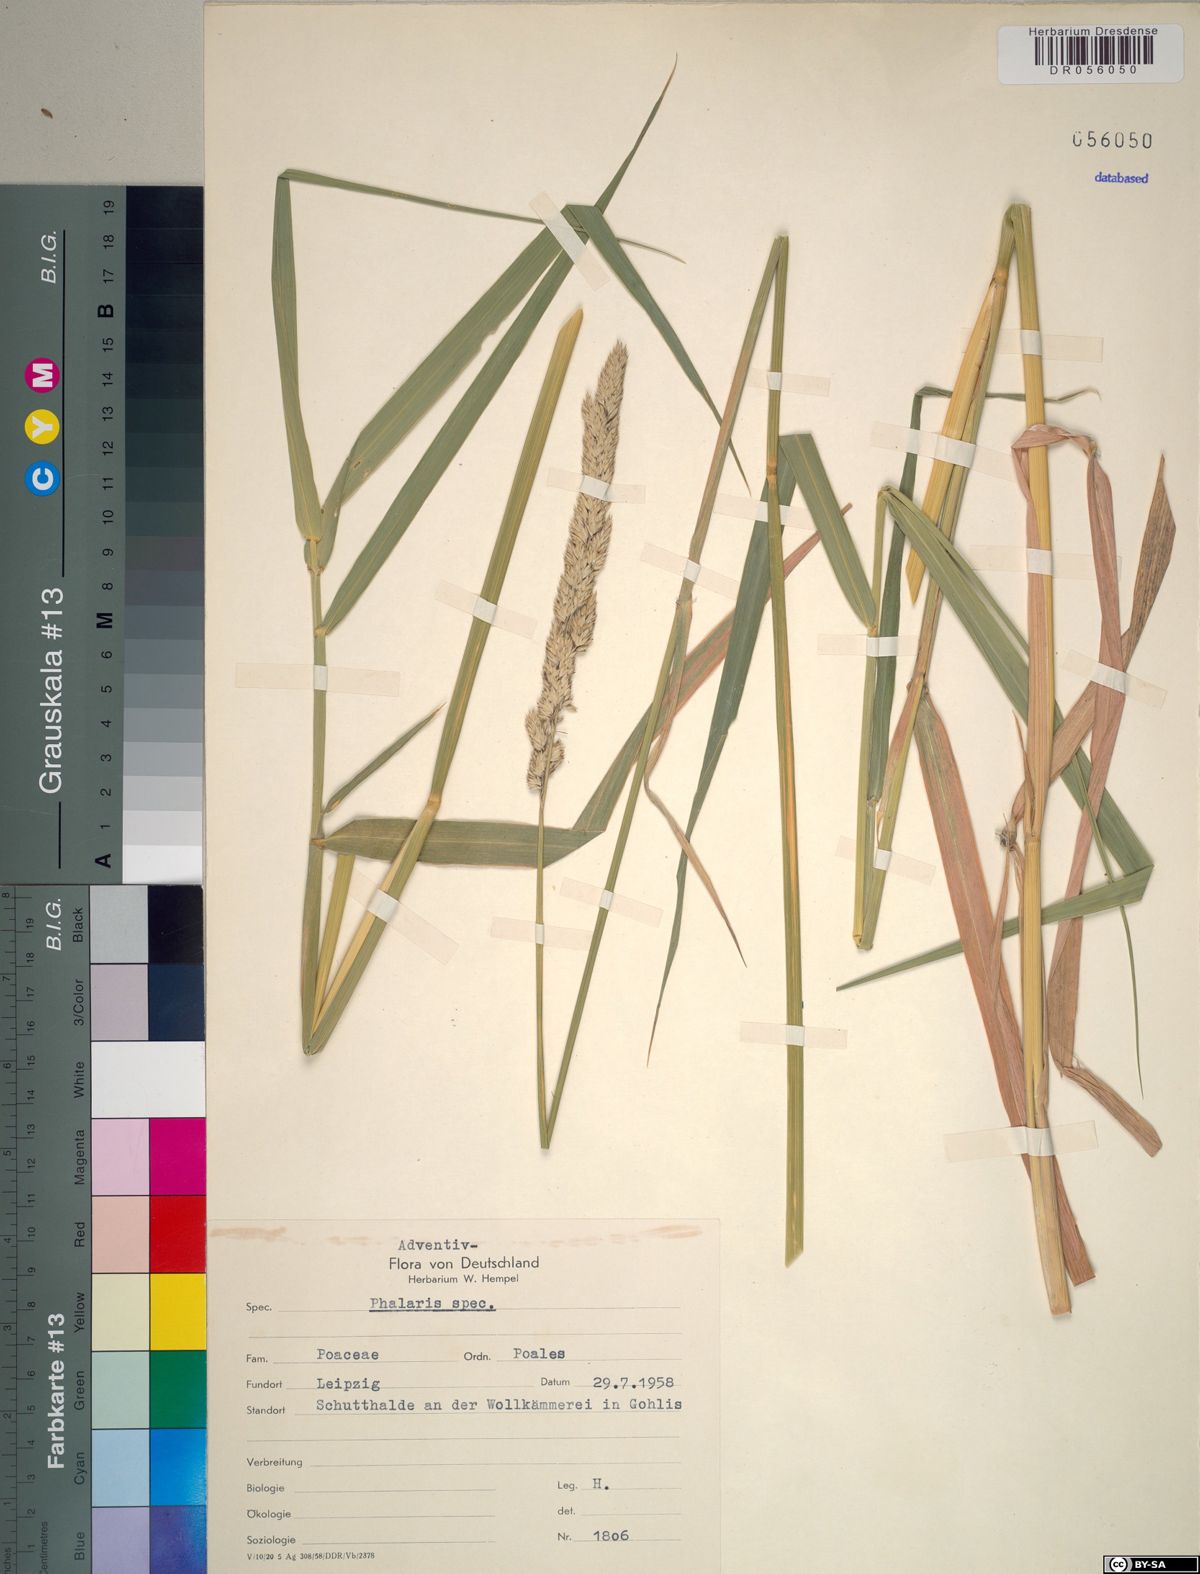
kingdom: Plantae
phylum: Tracheophyta
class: Liliopsida
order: Poales
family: Poaceae
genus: Phalaris
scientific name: Phalaris
